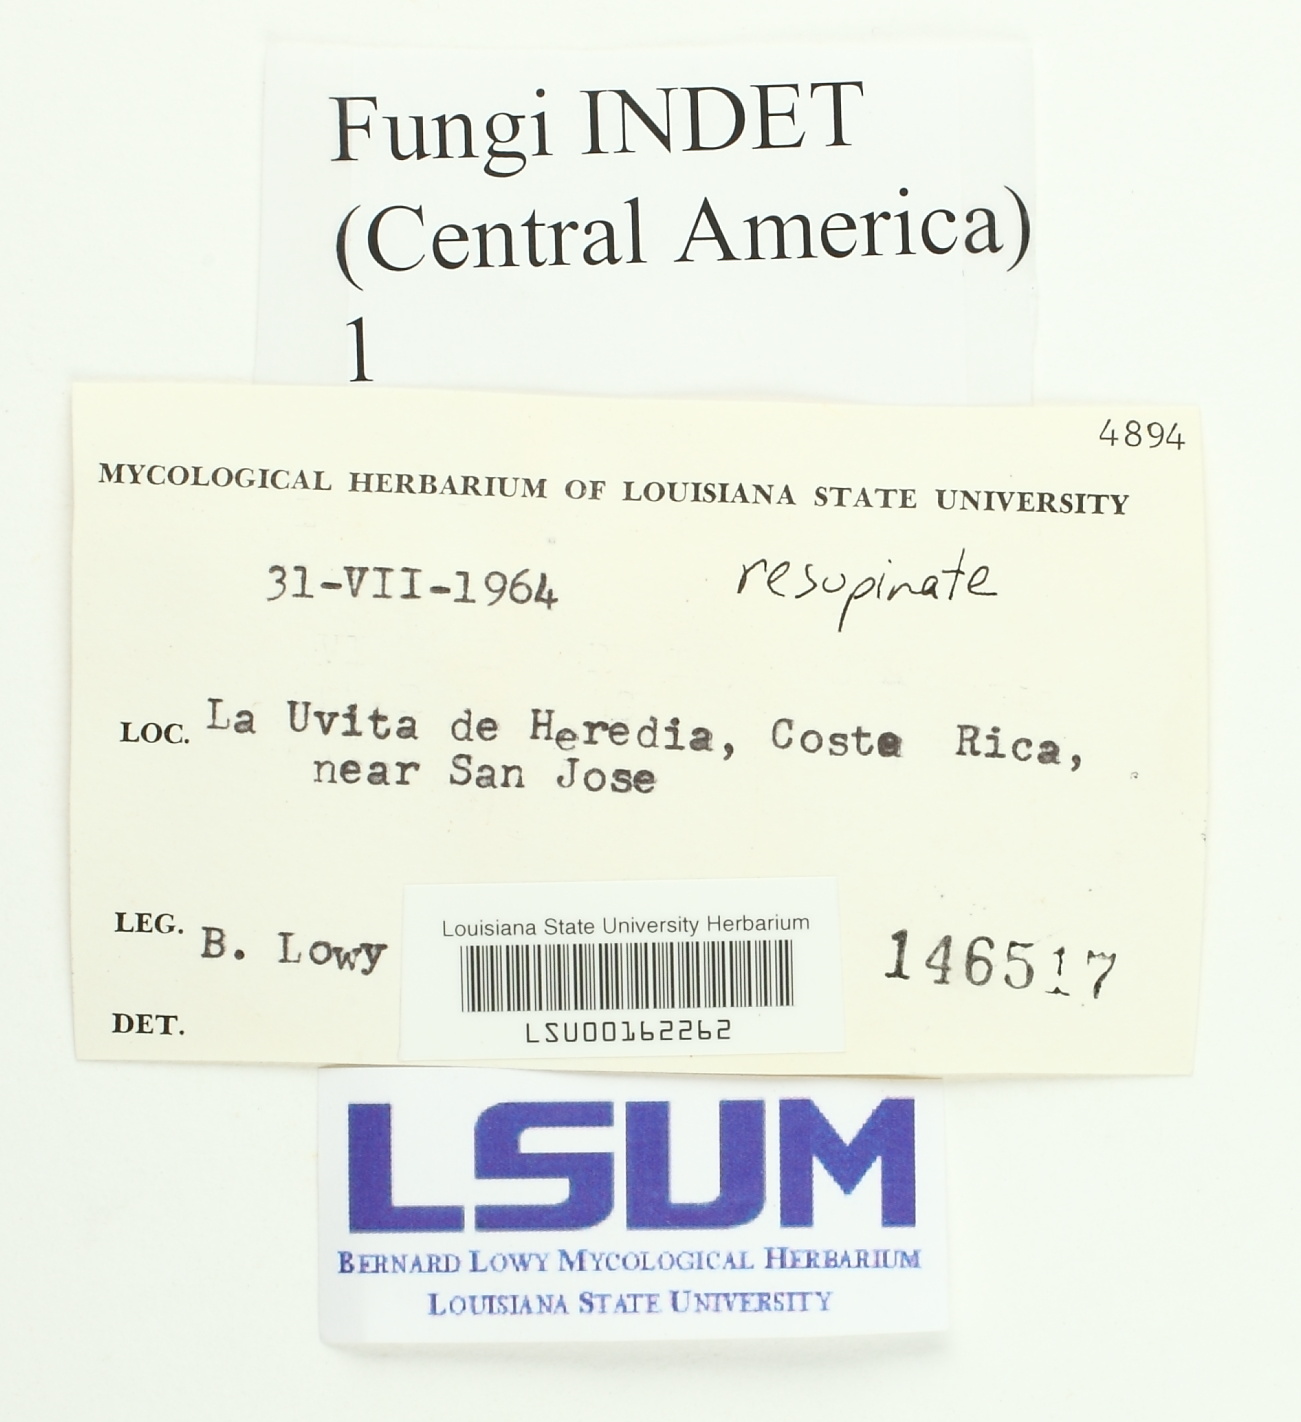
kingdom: Fungi
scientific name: Fungi
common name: Fungi
